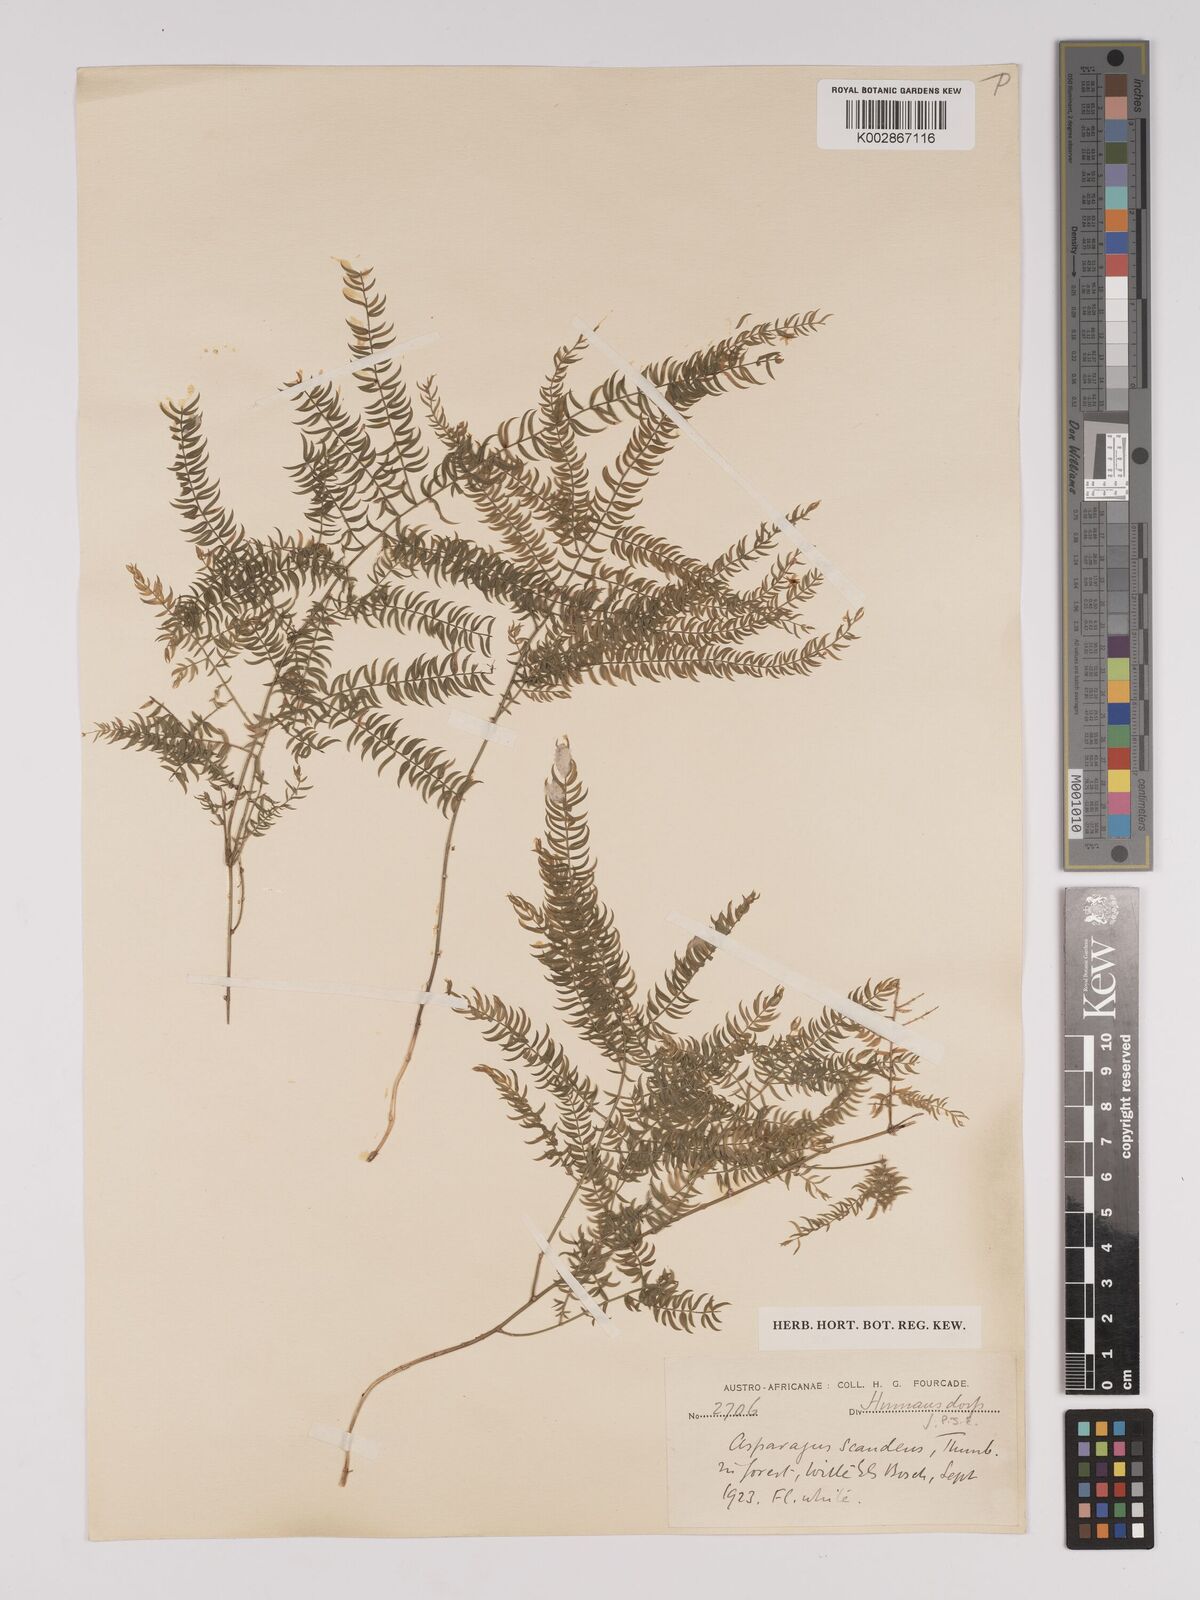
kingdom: Plantae
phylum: Tracheophyta
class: Liliopsida
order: Asparagales
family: Asparagaceae
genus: Asparagus
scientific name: Asparagus scandens
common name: Asparagus-fern
